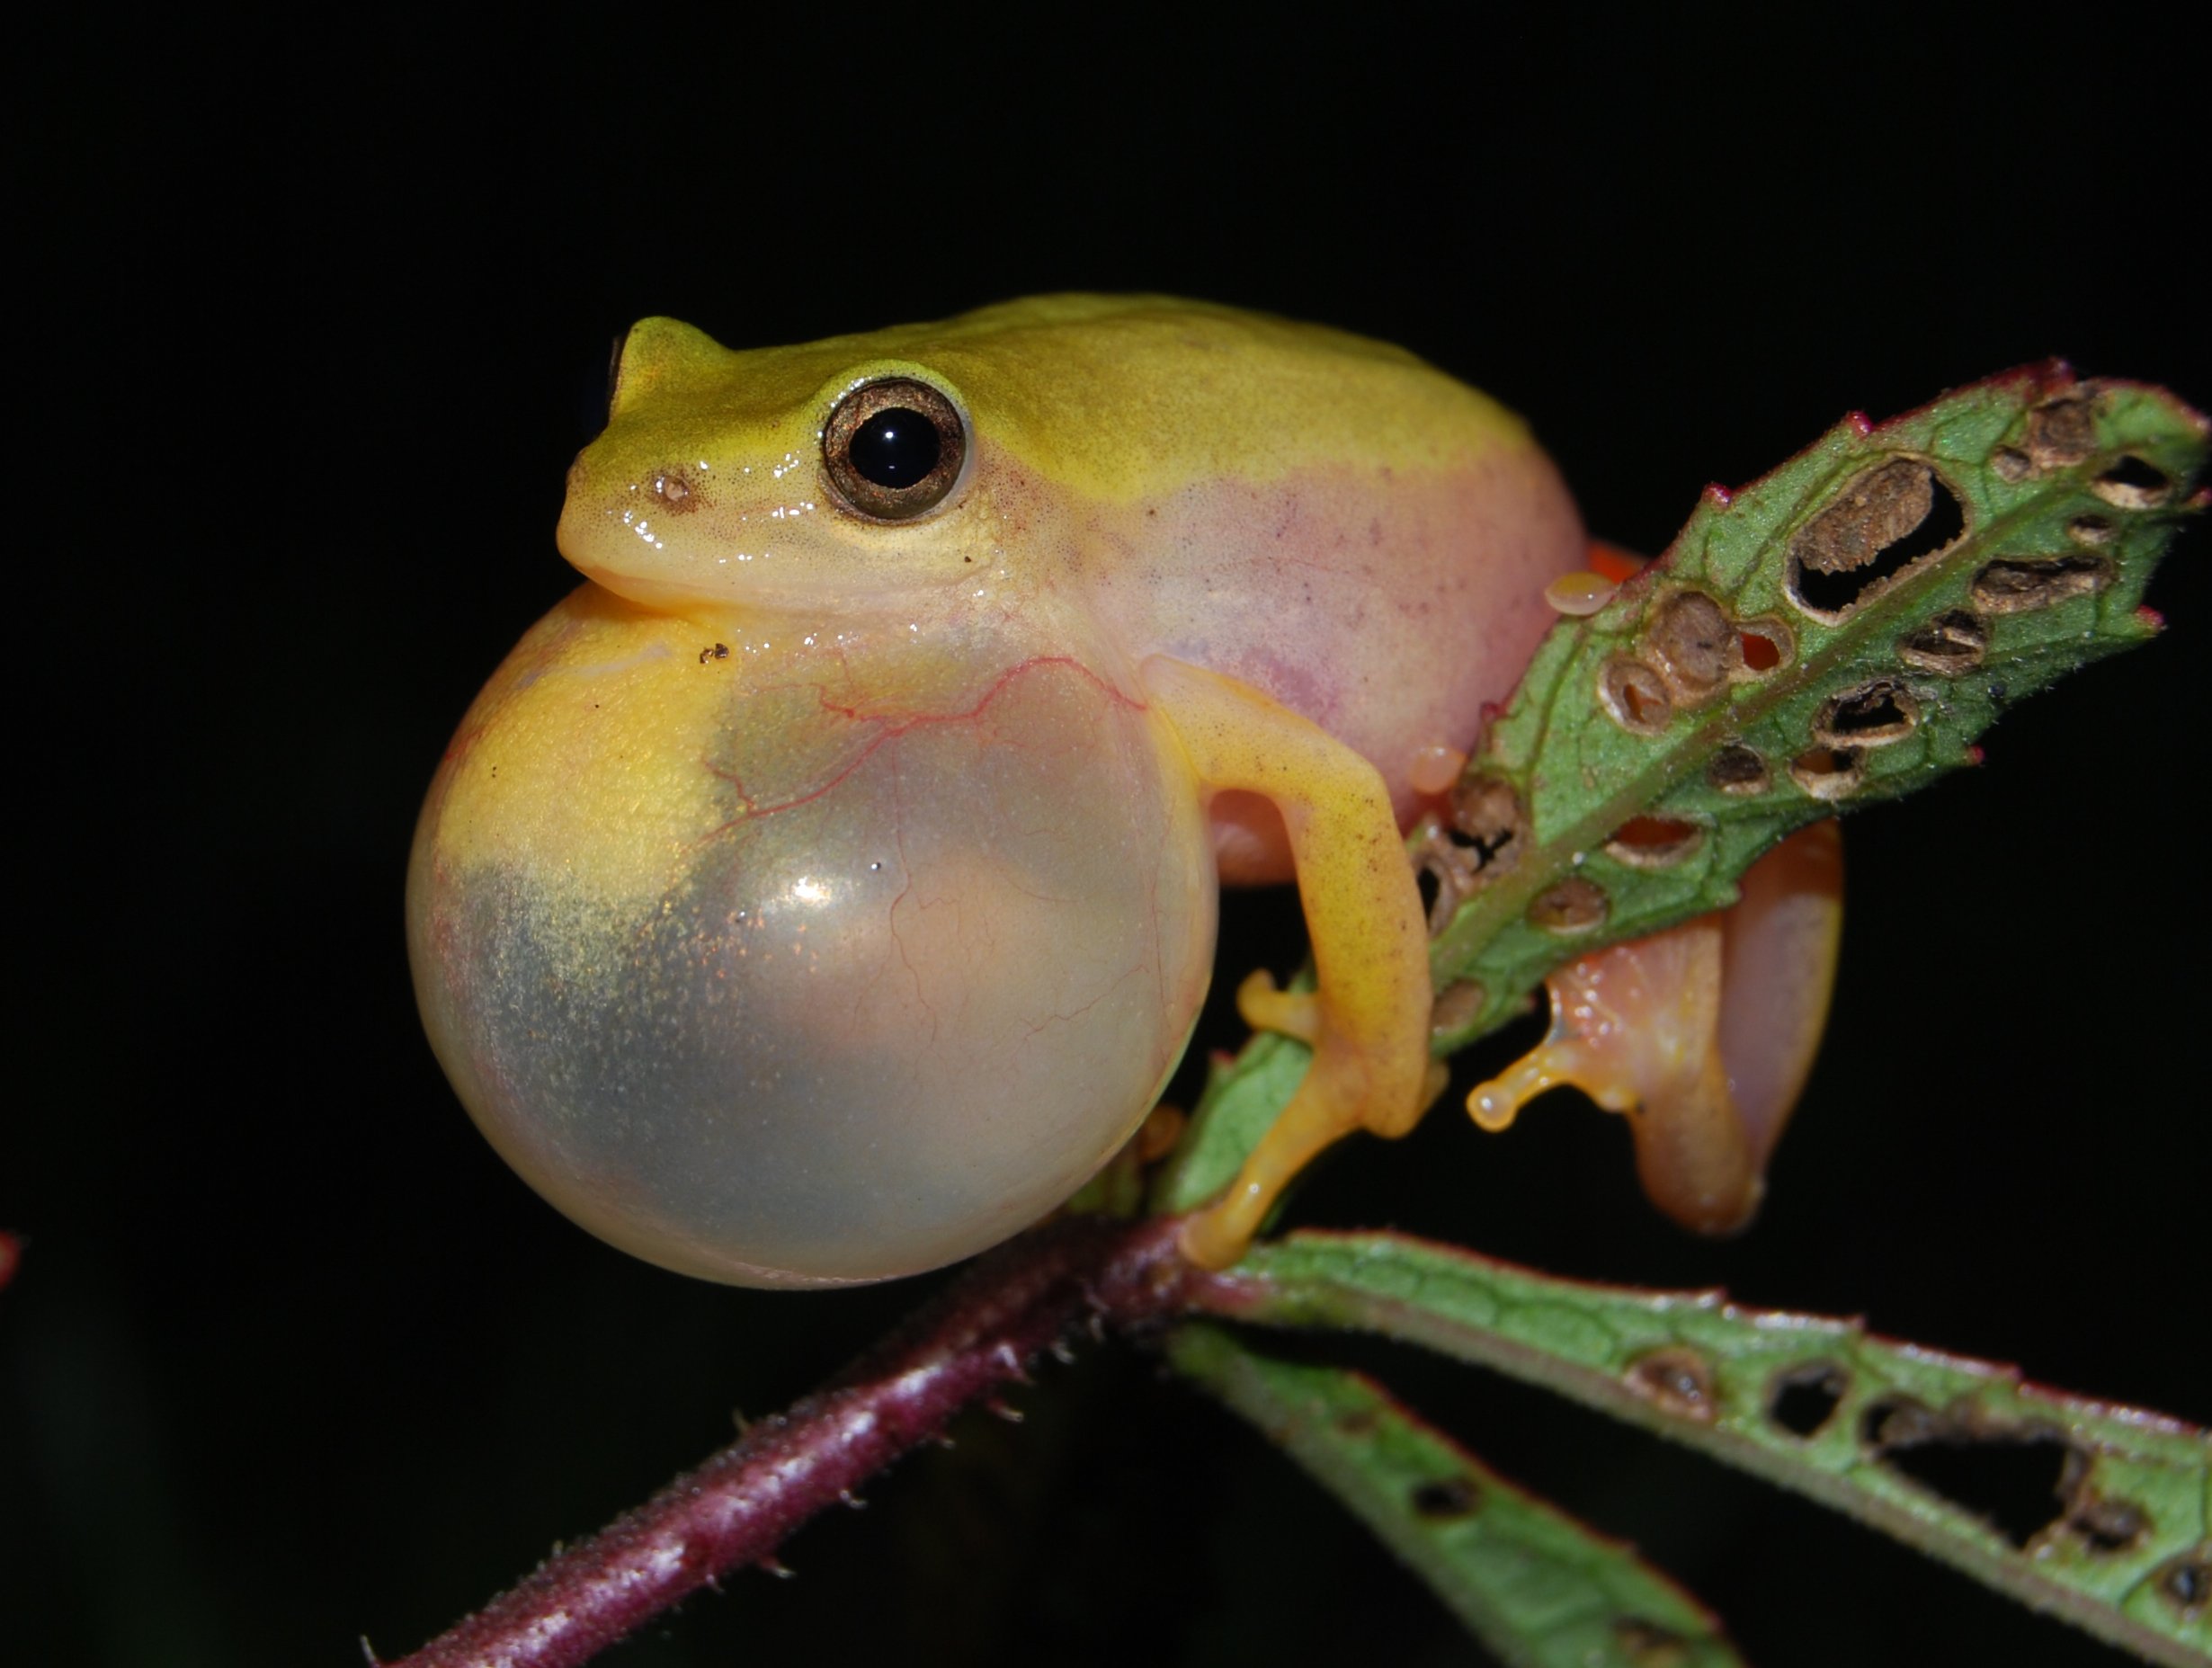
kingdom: Animalia
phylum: Chordata
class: Amphibia
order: Anura
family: Hyperoliidae
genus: Hyperolius
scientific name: Hyperolius kivuensis
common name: Kivu reed frog
